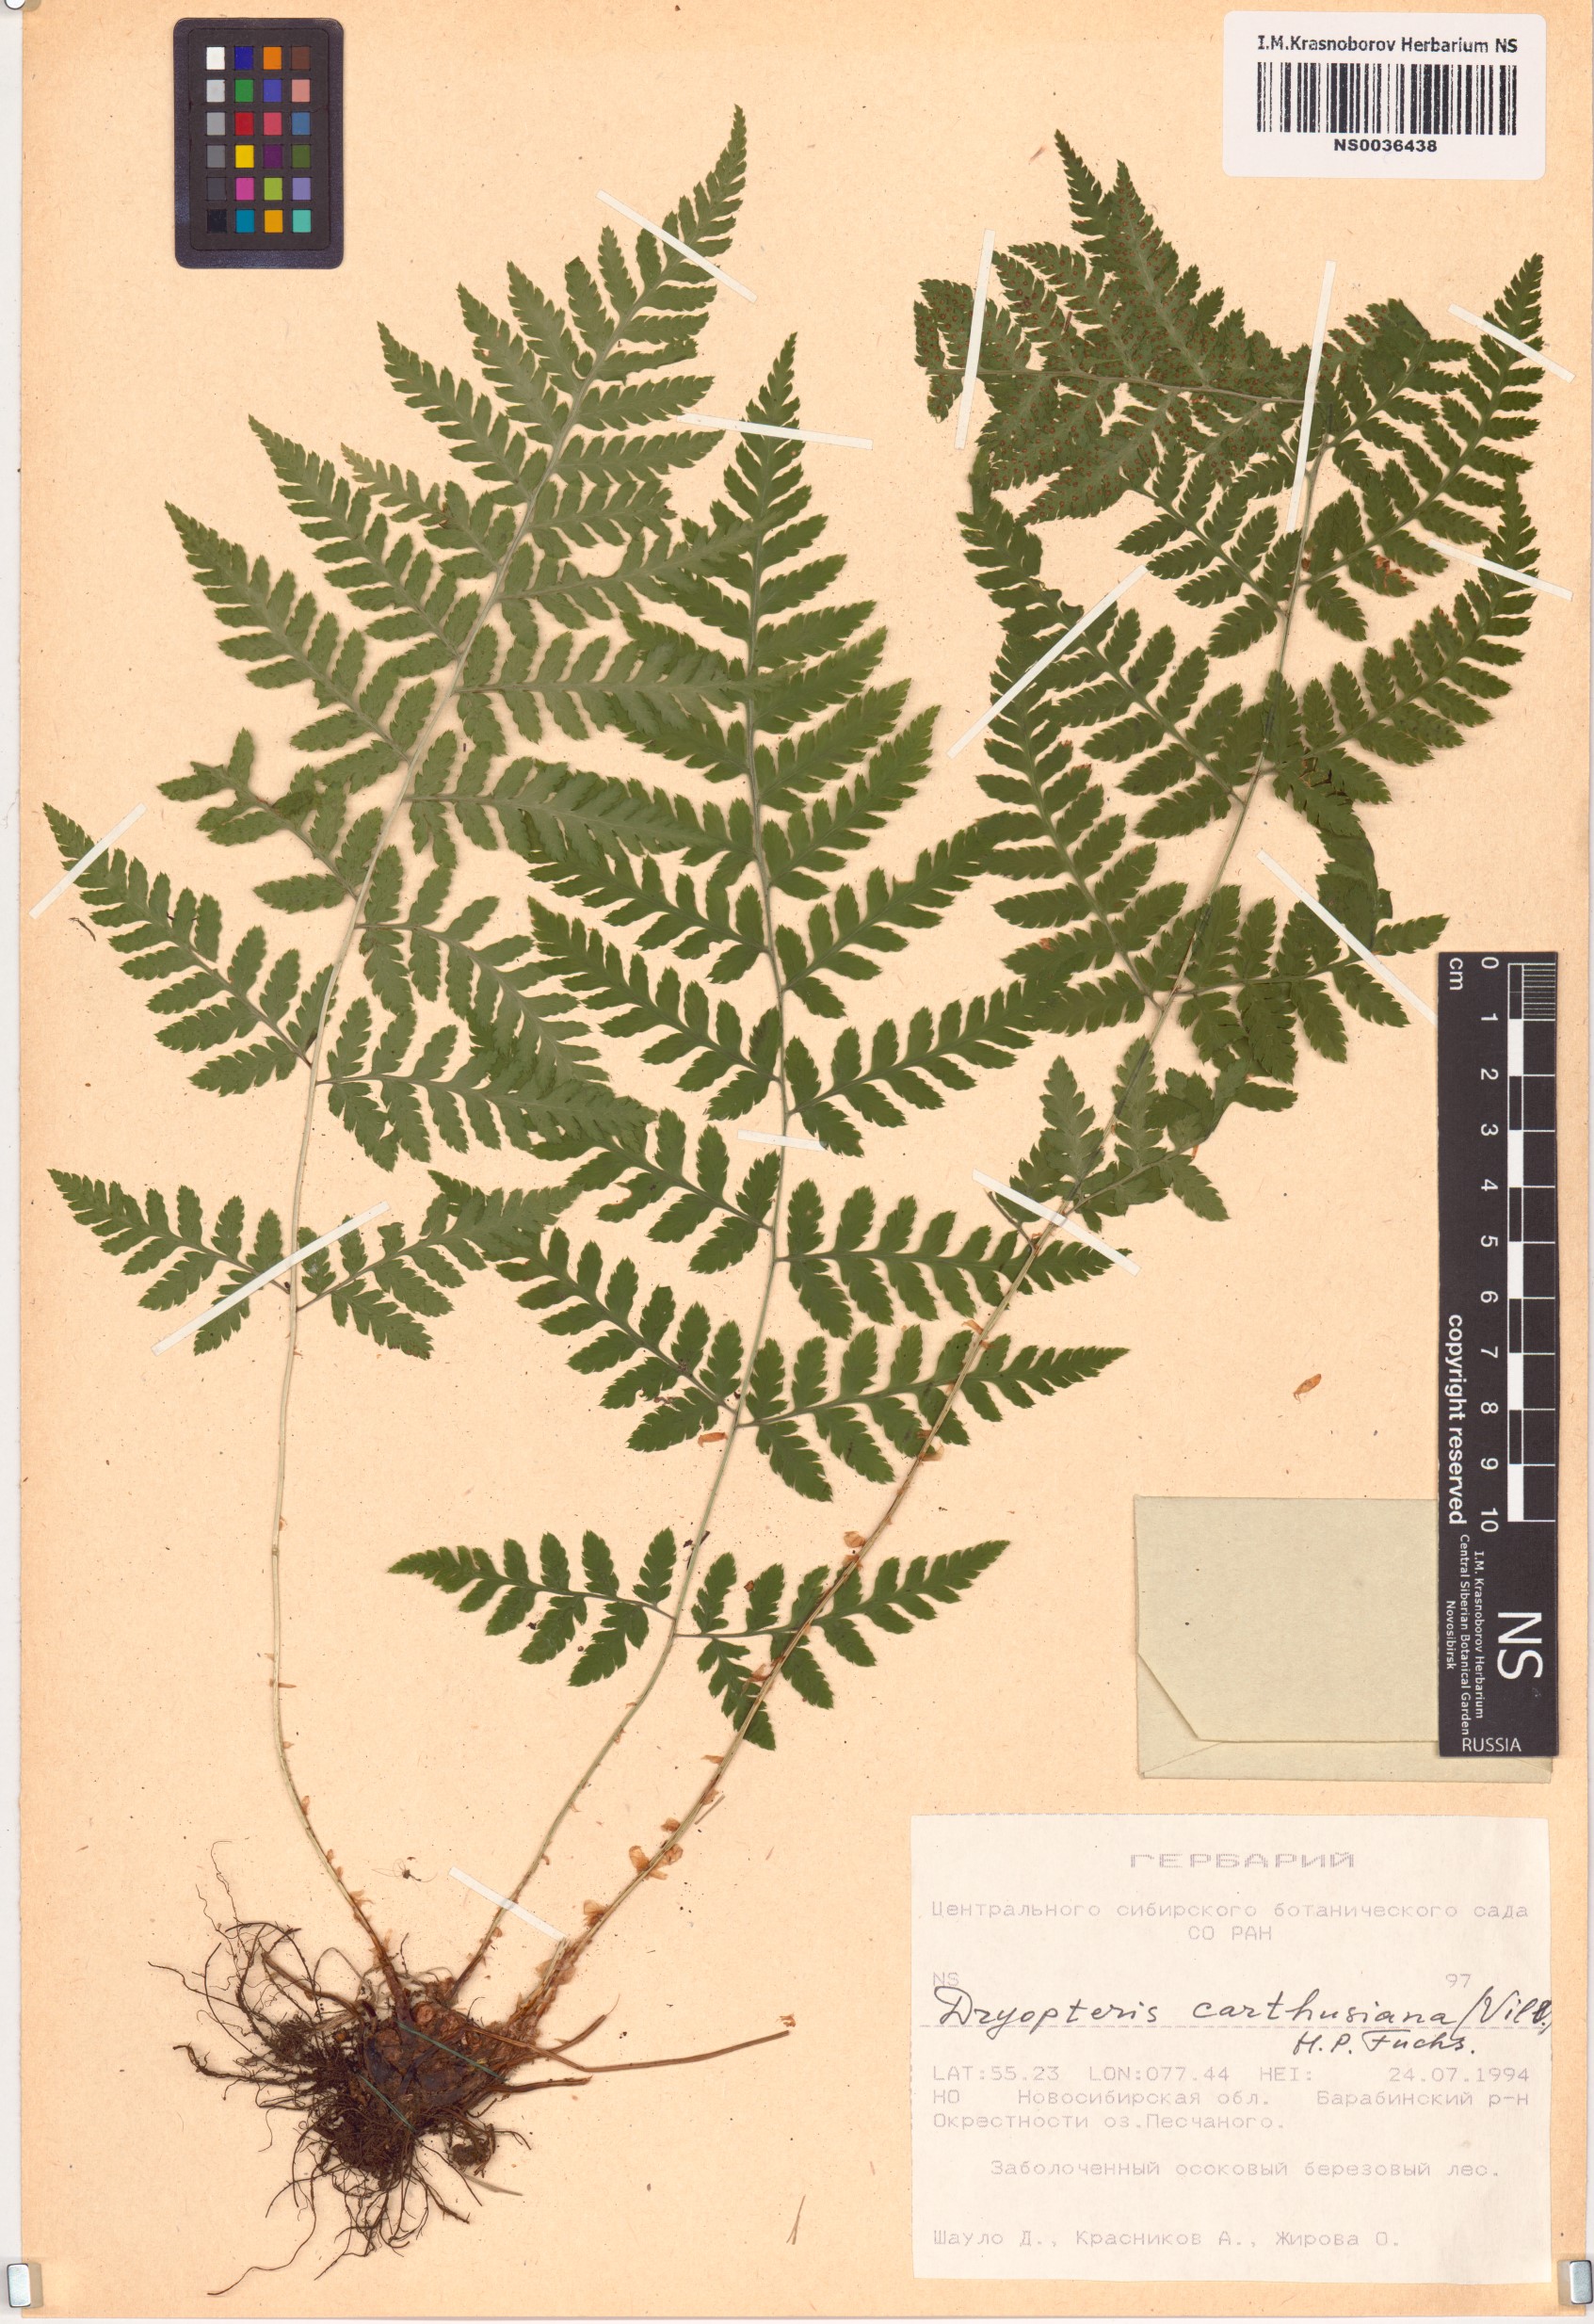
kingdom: Plantae
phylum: Tracheophyta
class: Polypodiopsida
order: Polypodiales
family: Dryopteridaceae
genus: Dryopteris
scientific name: Dryopteris carthusiana
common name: Narrow buckler-fern
